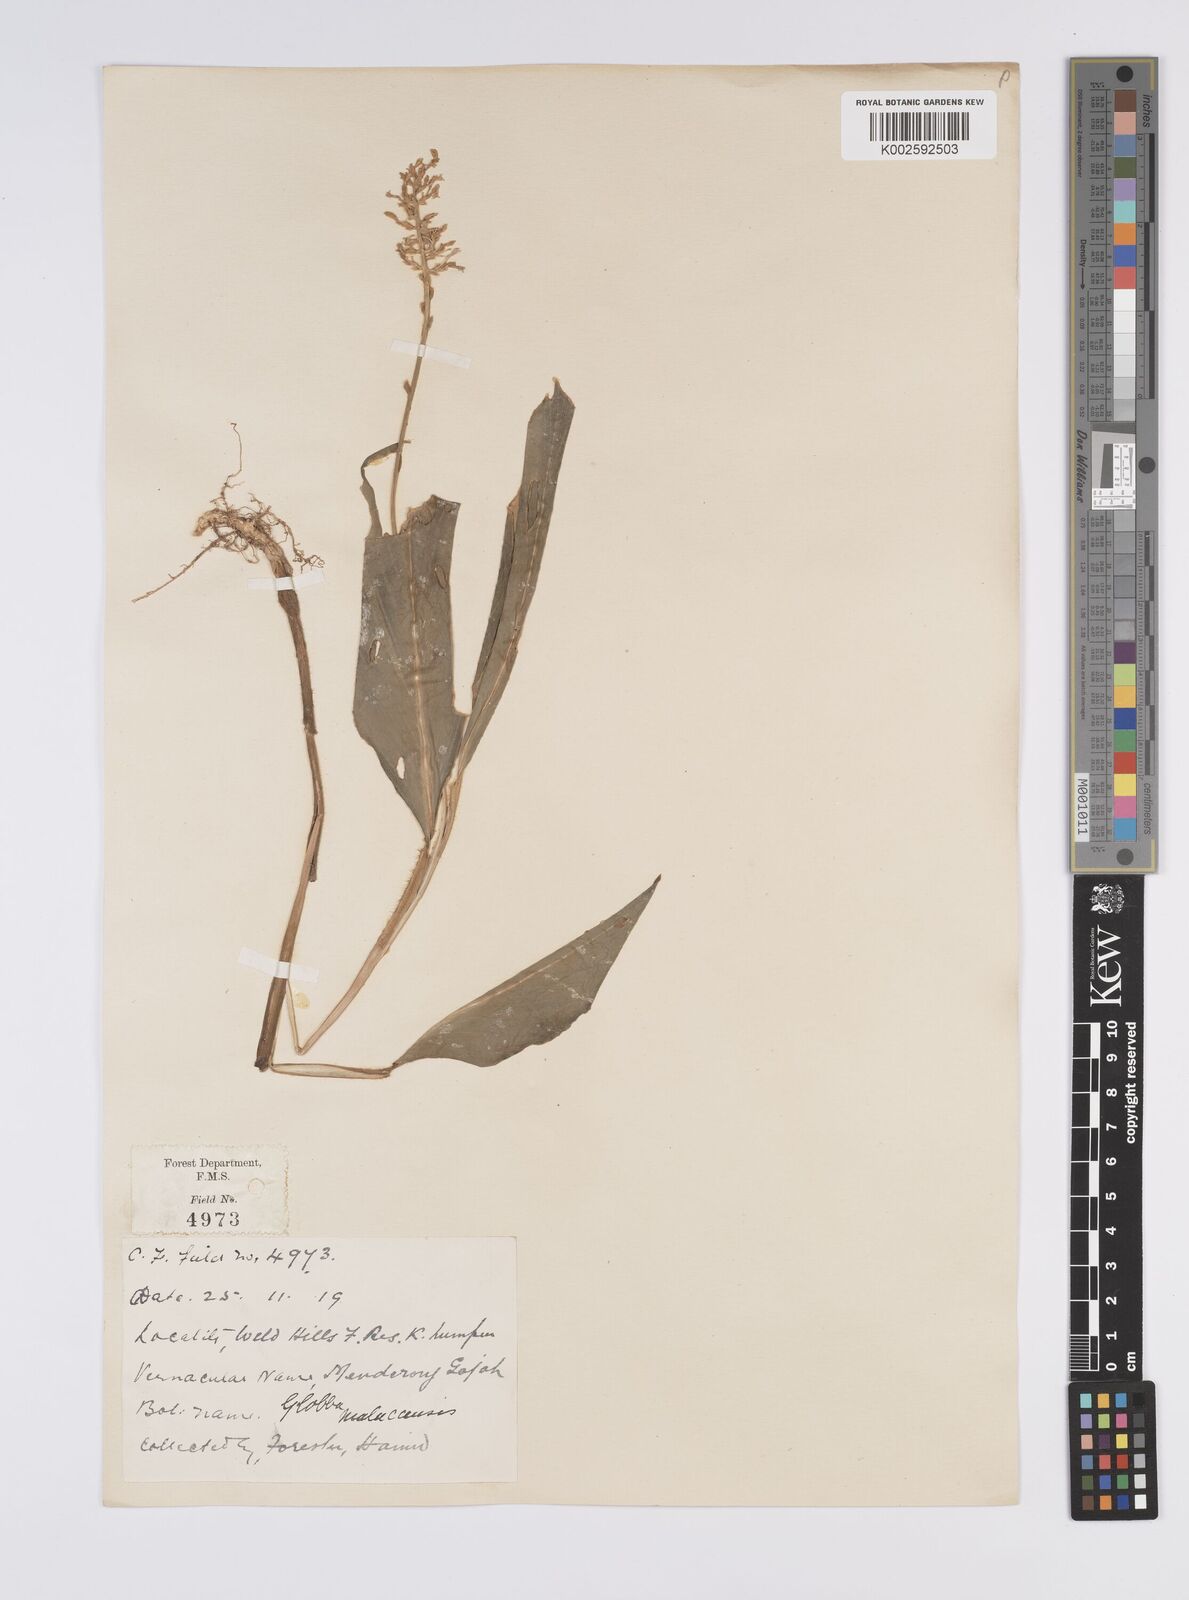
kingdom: Plantae
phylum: Tracheophyta
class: Liliopsida
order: Zingiberales
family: Zingiberaceae
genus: Globba
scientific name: Globba aurantiaca
